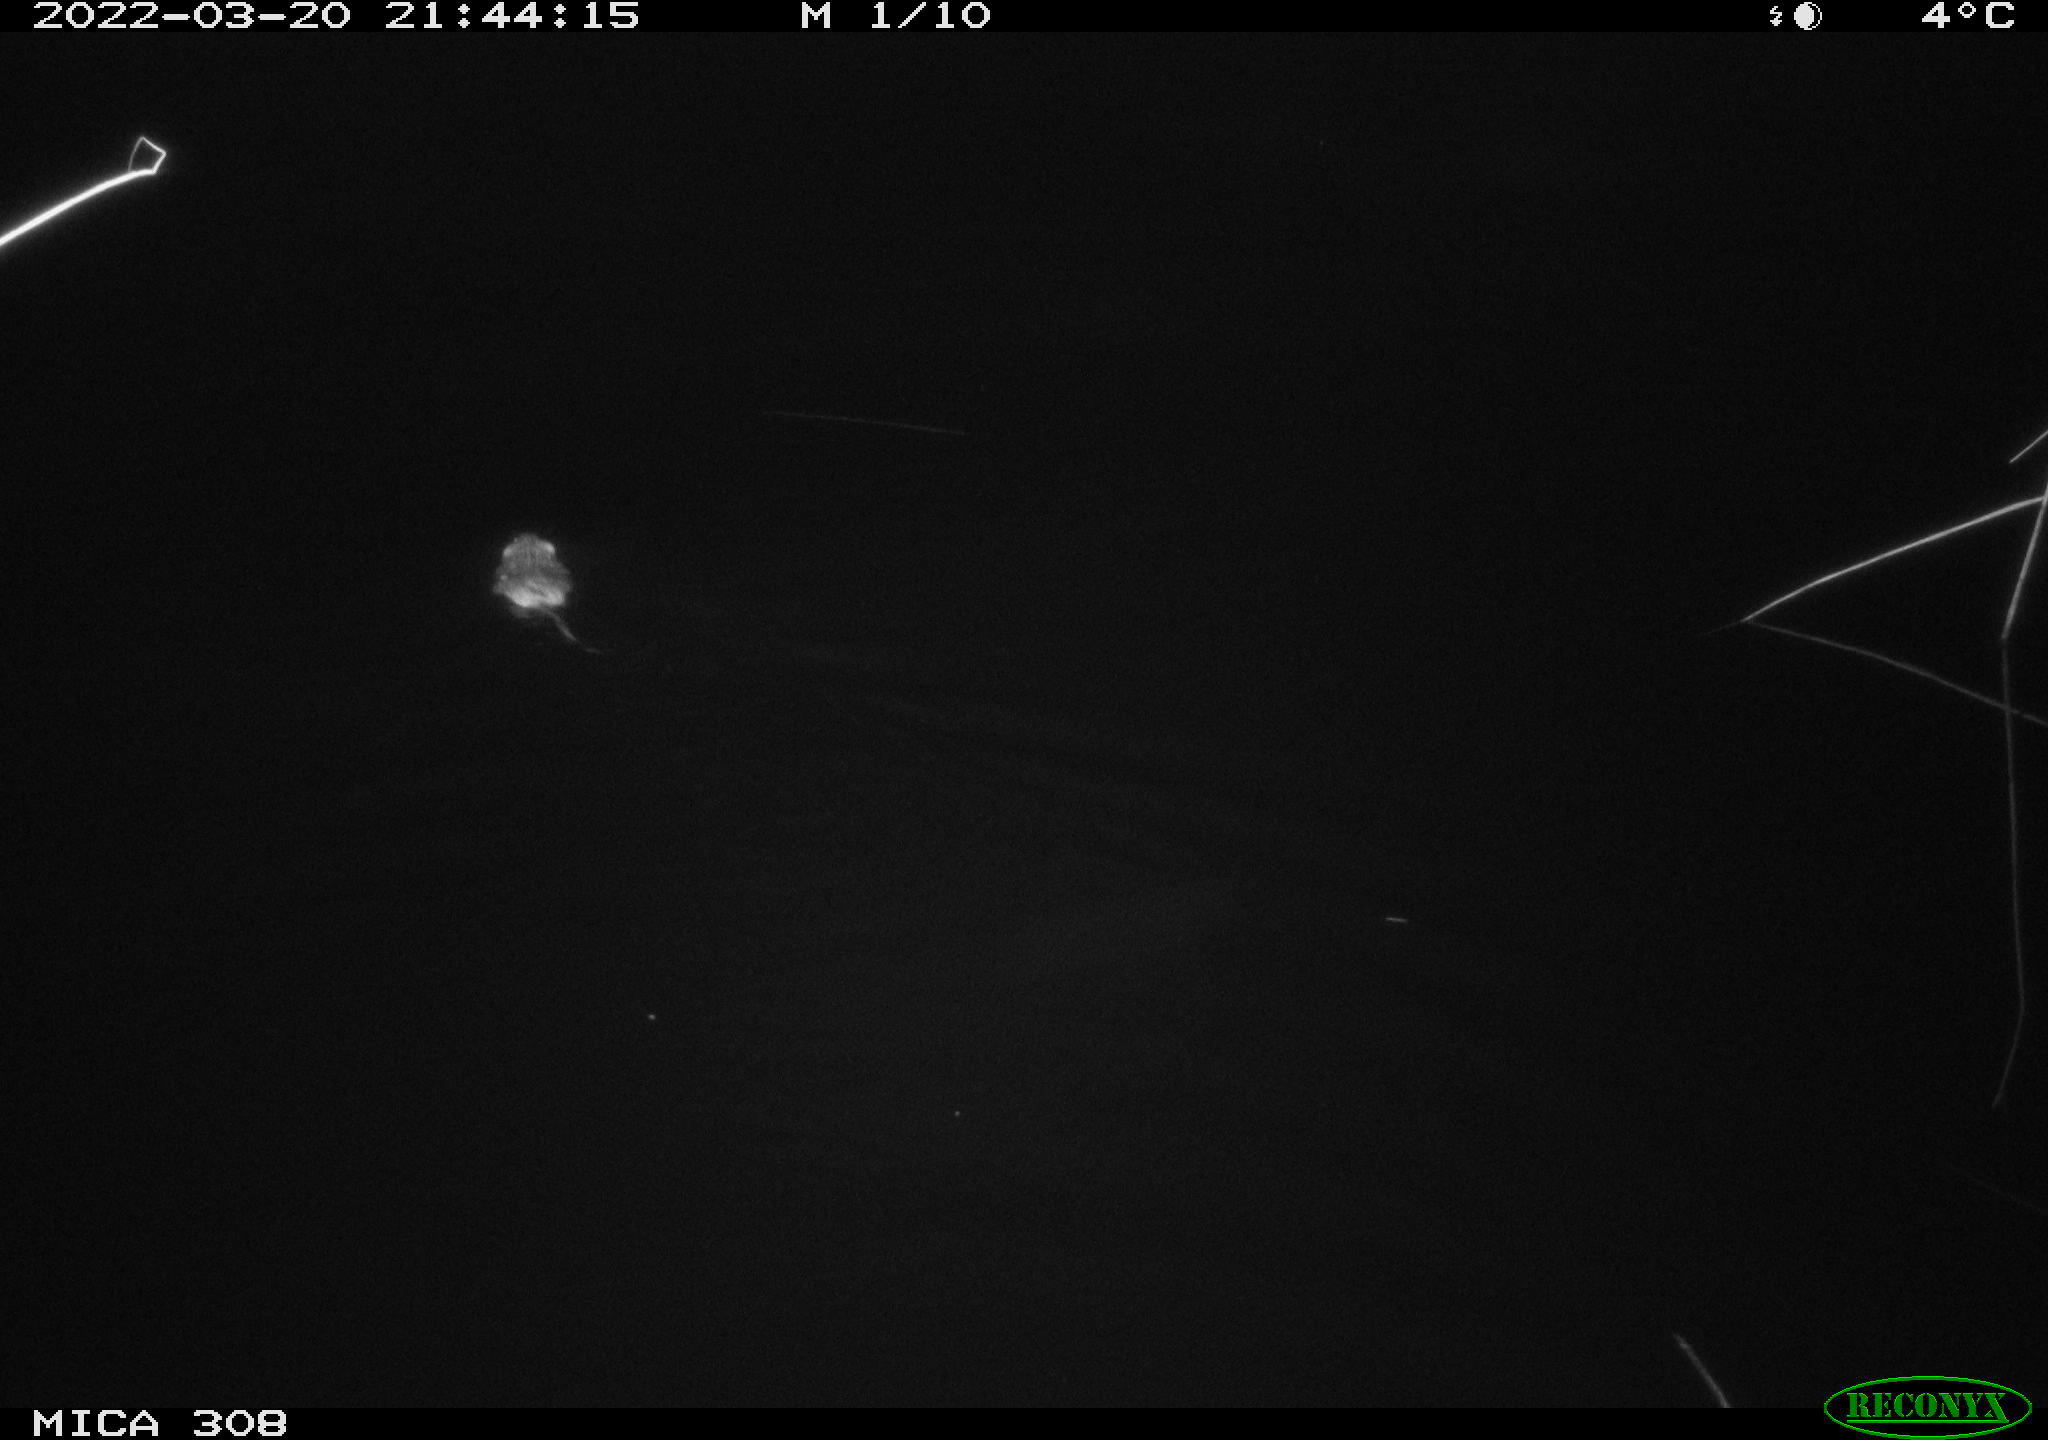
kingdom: Animalia
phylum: Chordata
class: Mammalia
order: Rodentia
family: Cricetidae
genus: Ondatra
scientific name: Ondatra zibethicus
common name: Muskrat
